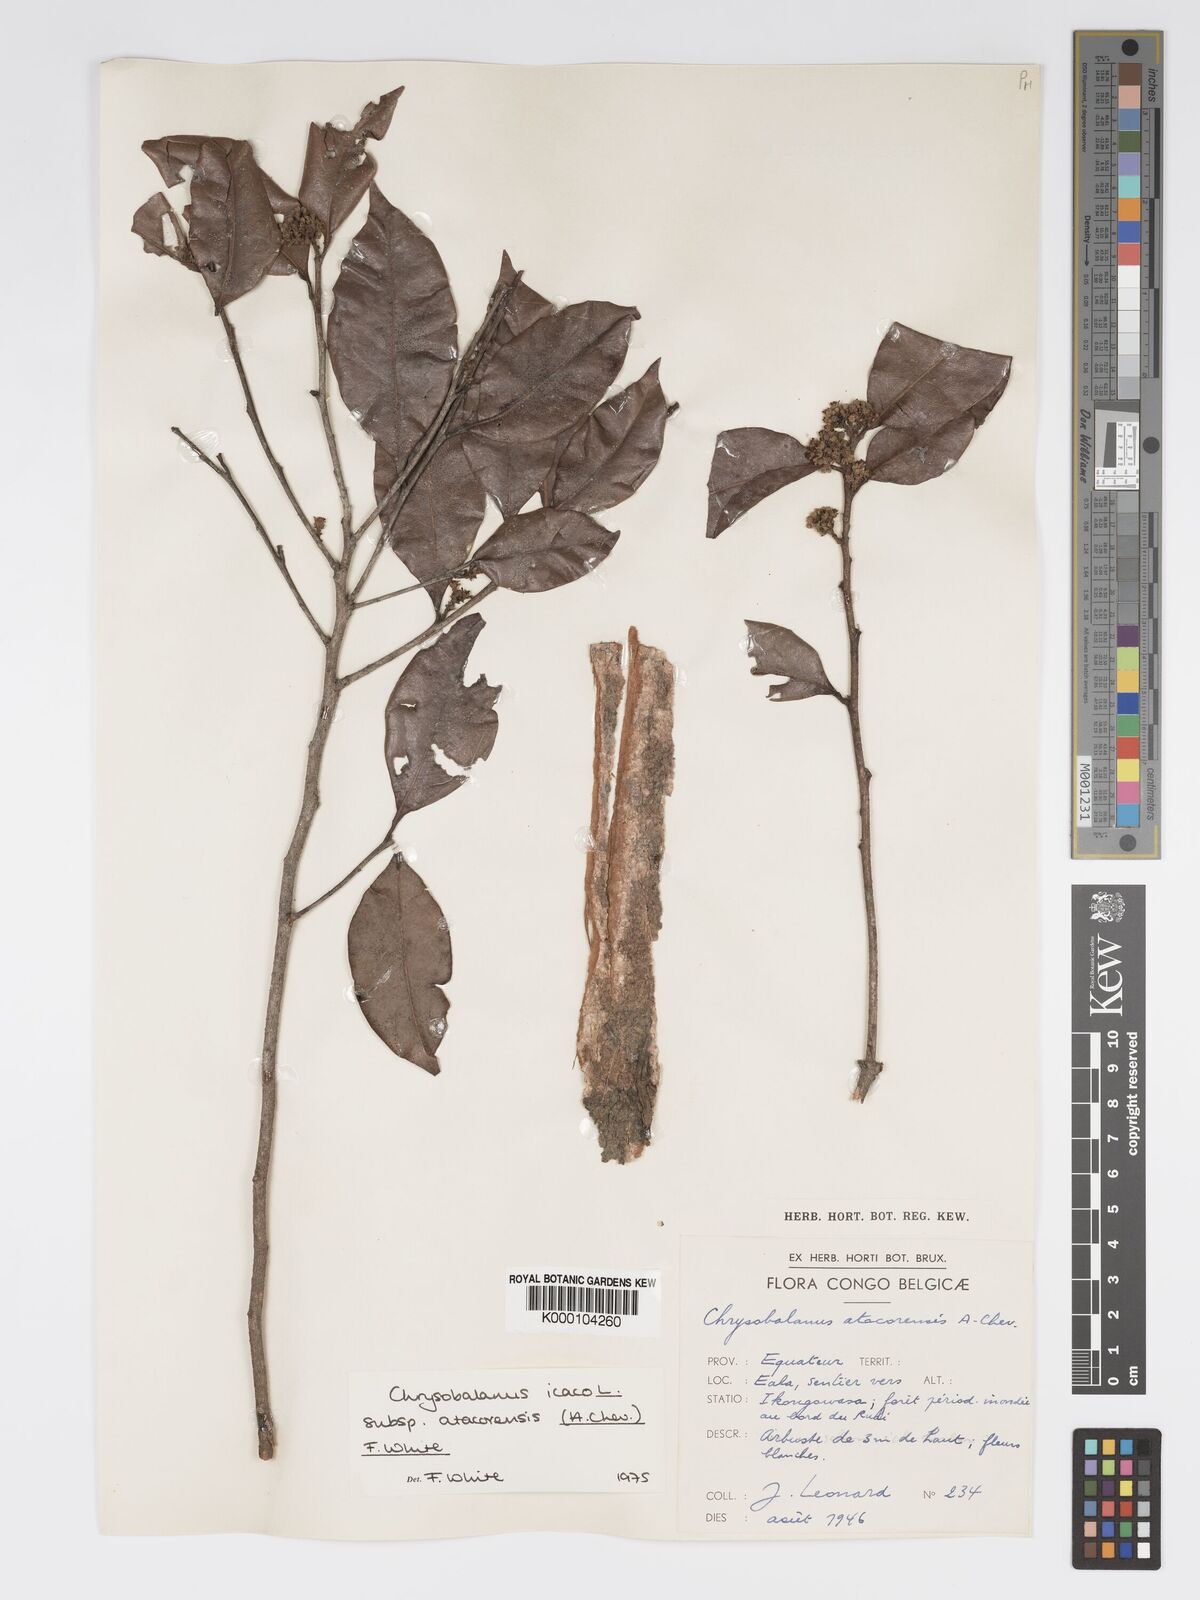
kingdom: Plantae
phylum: Tracheophyta
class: Magnoliopsida
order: Malpighiales
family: Chrysobalanaceae
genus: Chrysobalanus
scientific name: Chrysobalanus icaco
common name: Coco plum
